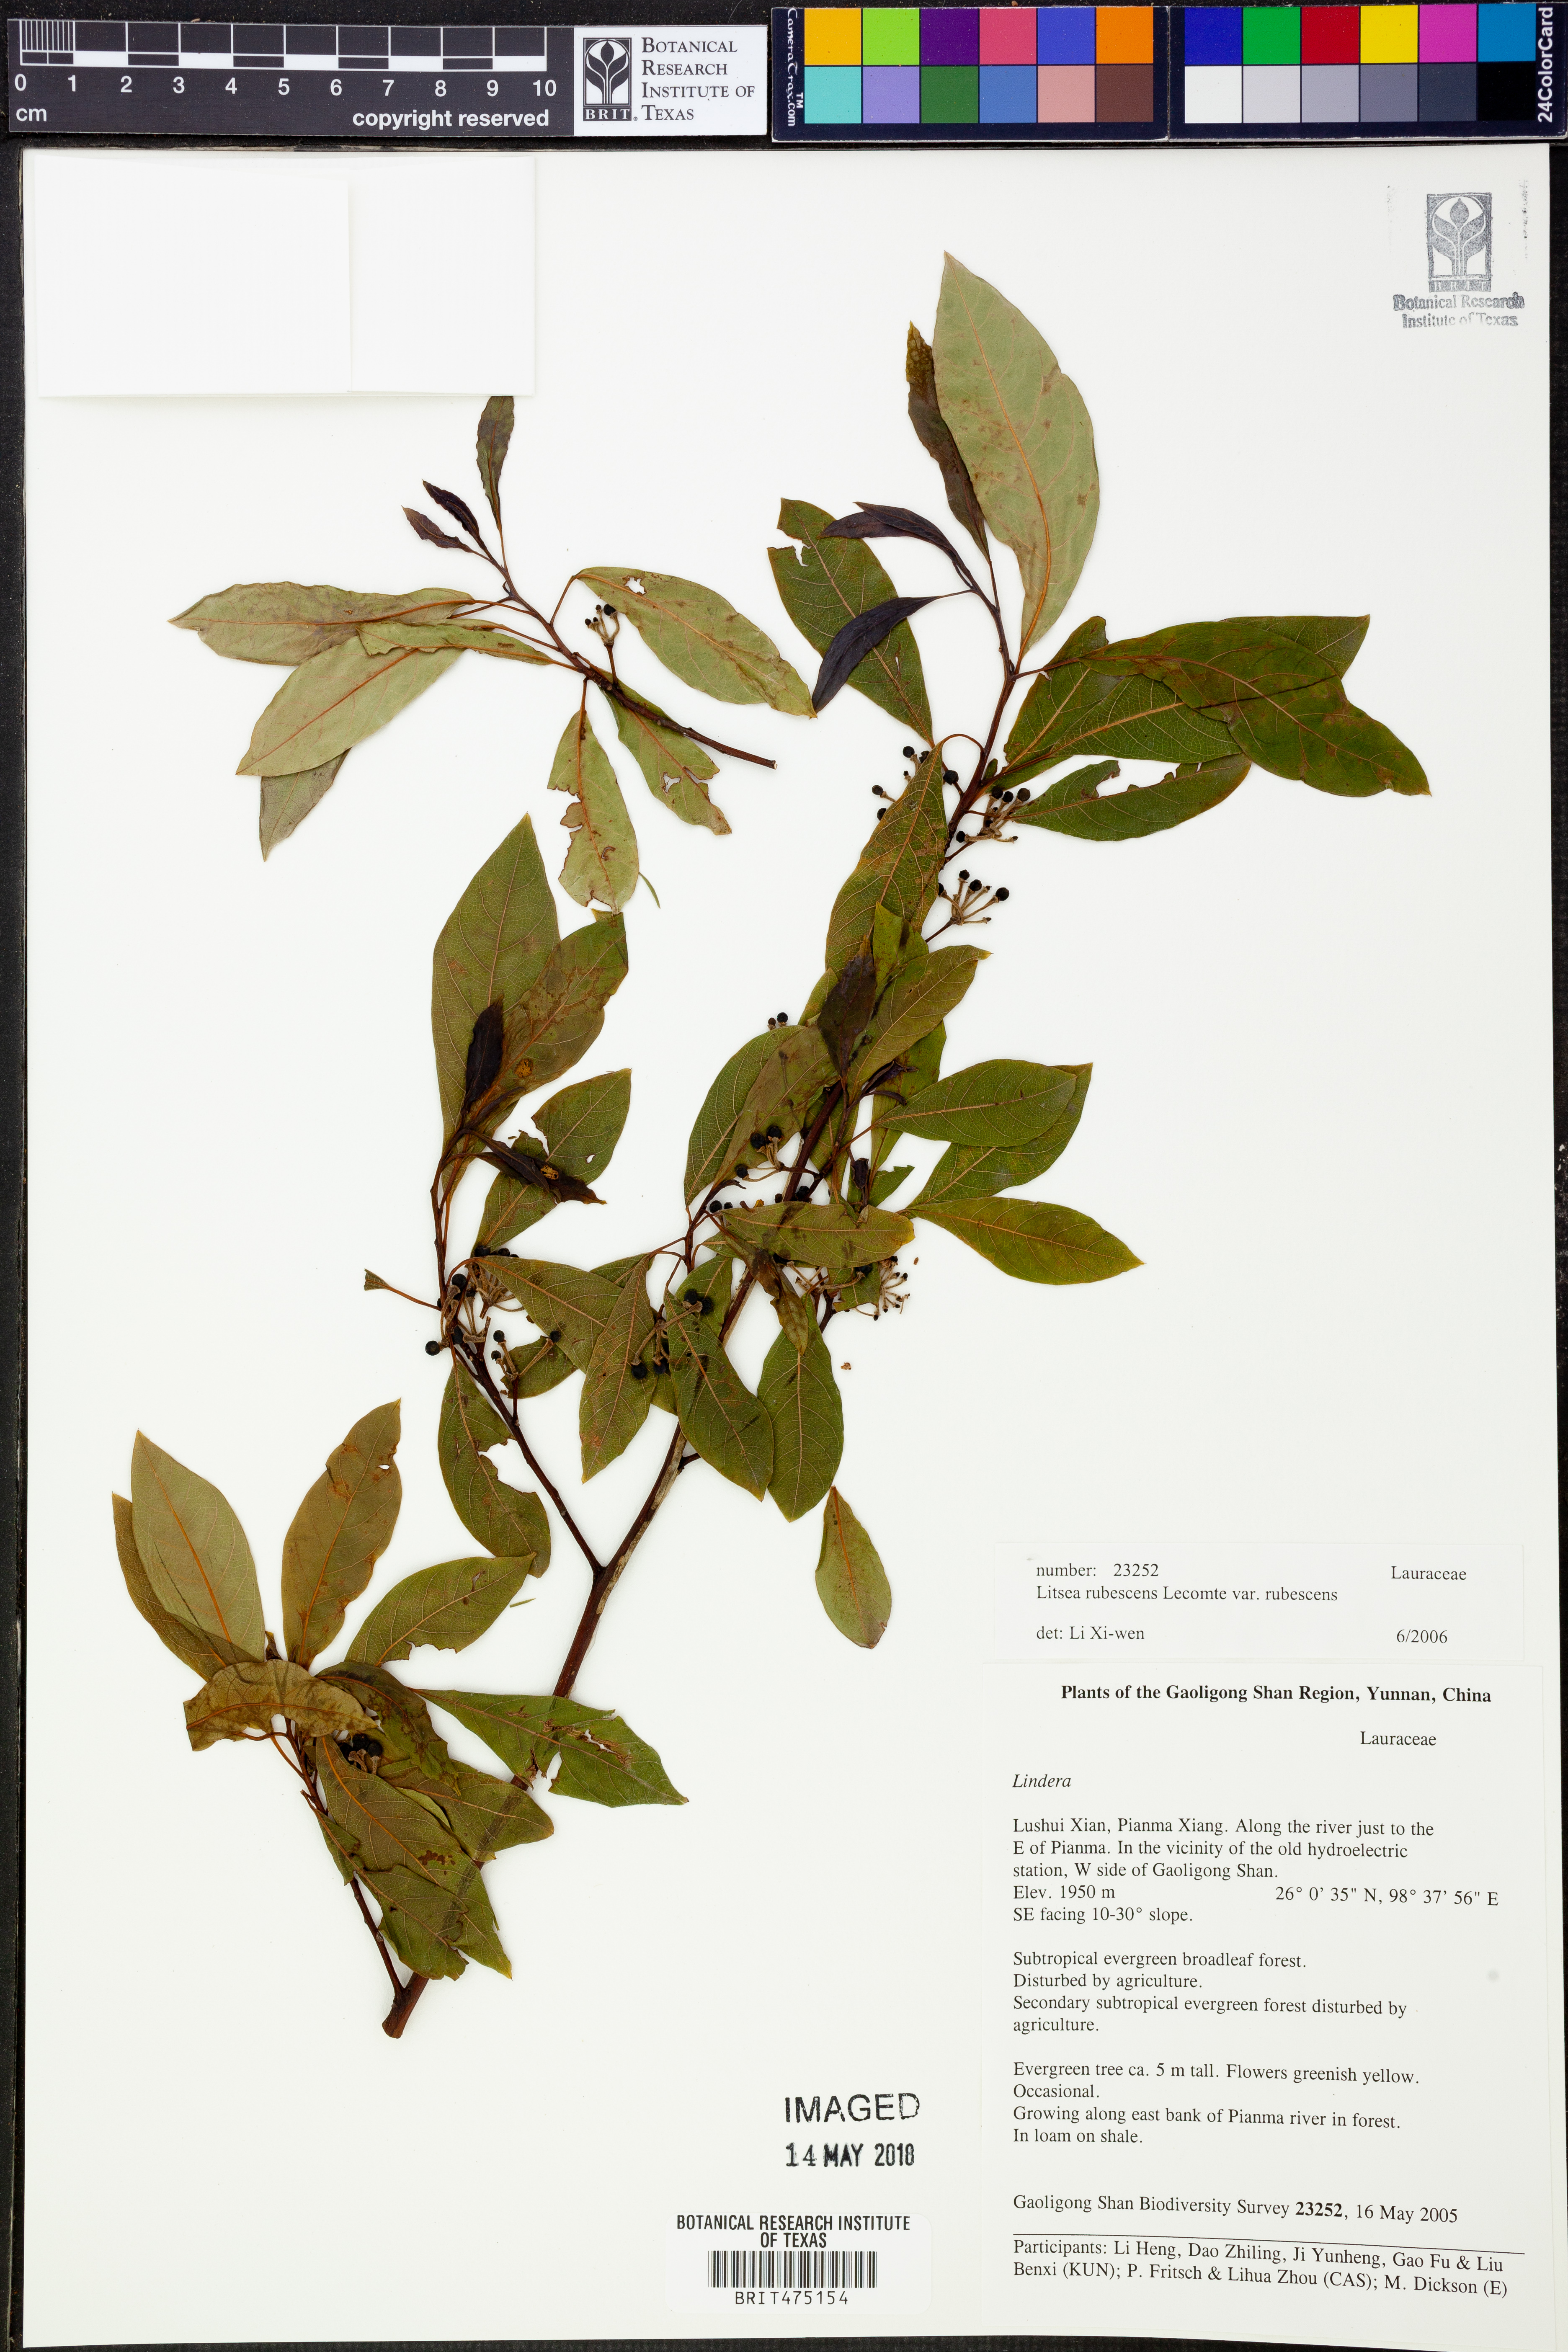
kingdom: Plantae
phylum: Tracheophyta
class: Magnoliopsida
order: Laurales
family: Lauraceae
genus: Litsea
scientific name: Litsea rubescens
